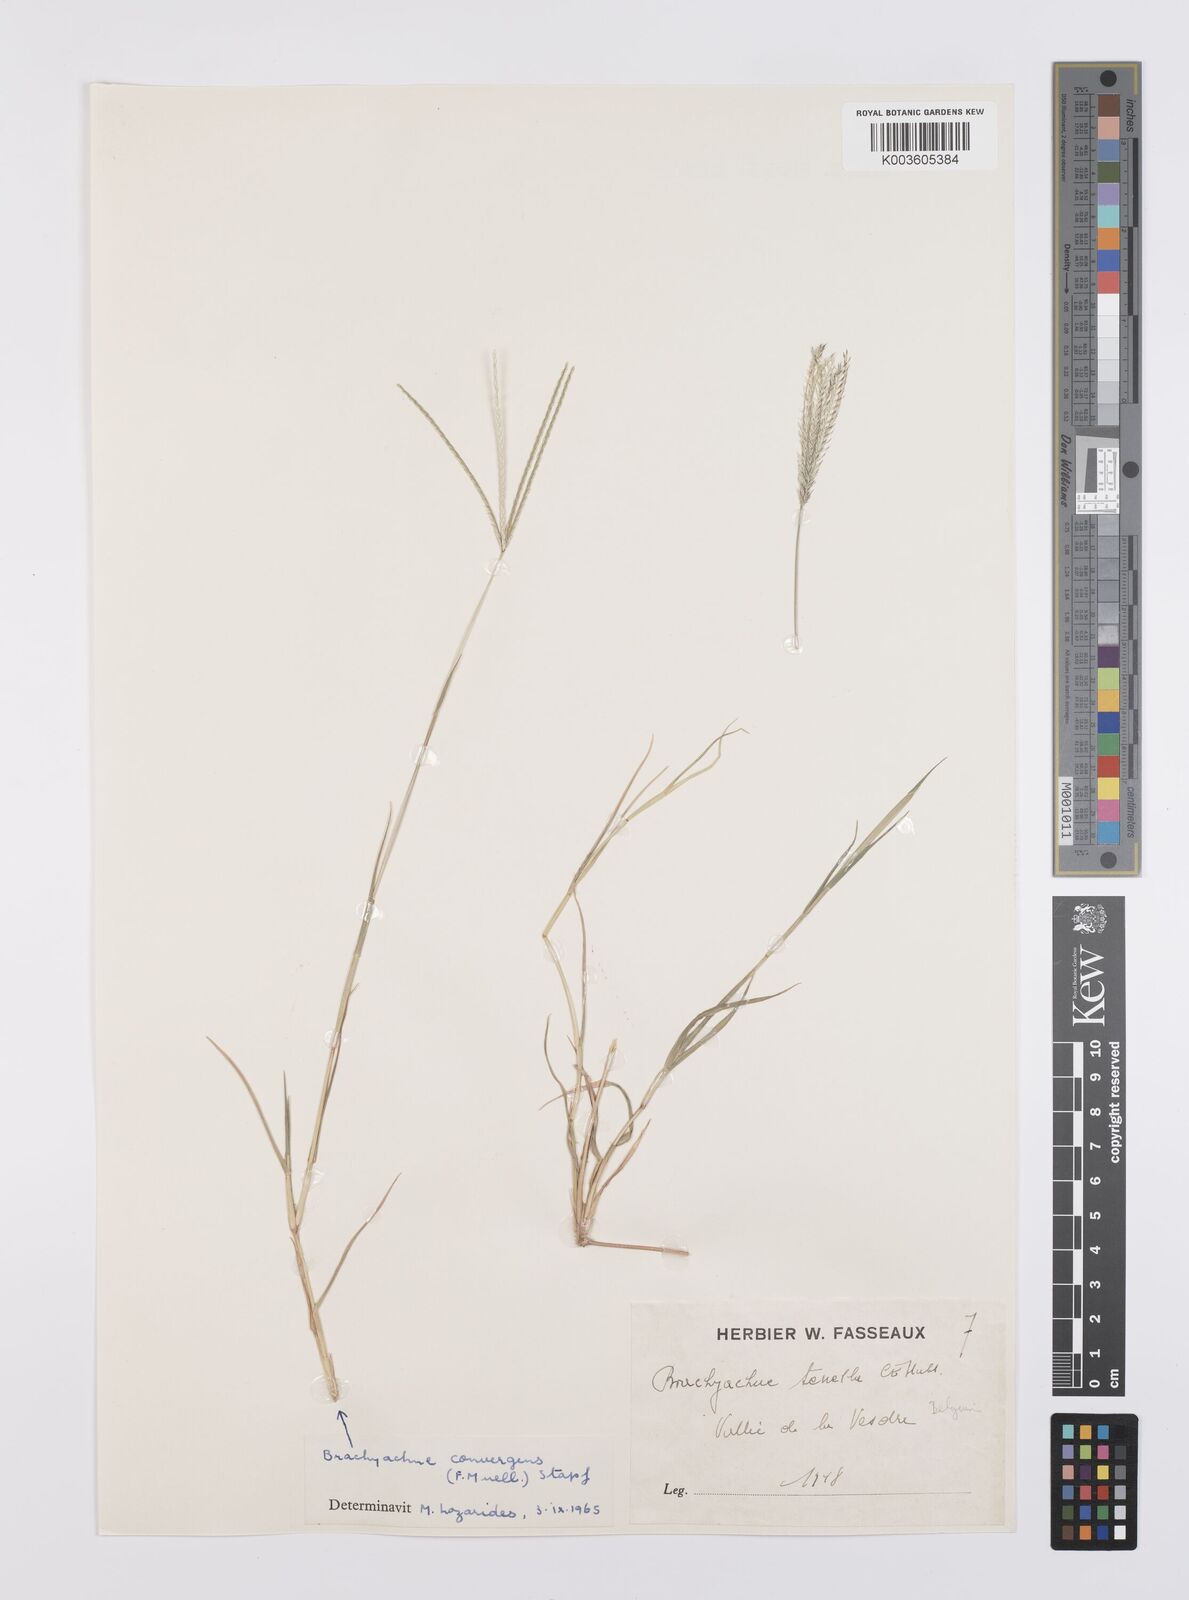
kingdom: Plantae
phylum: Tracheophyta
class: Liliopsida
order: Poales
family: Poaceae
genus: Cynodon
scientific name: Cynodon convergens
